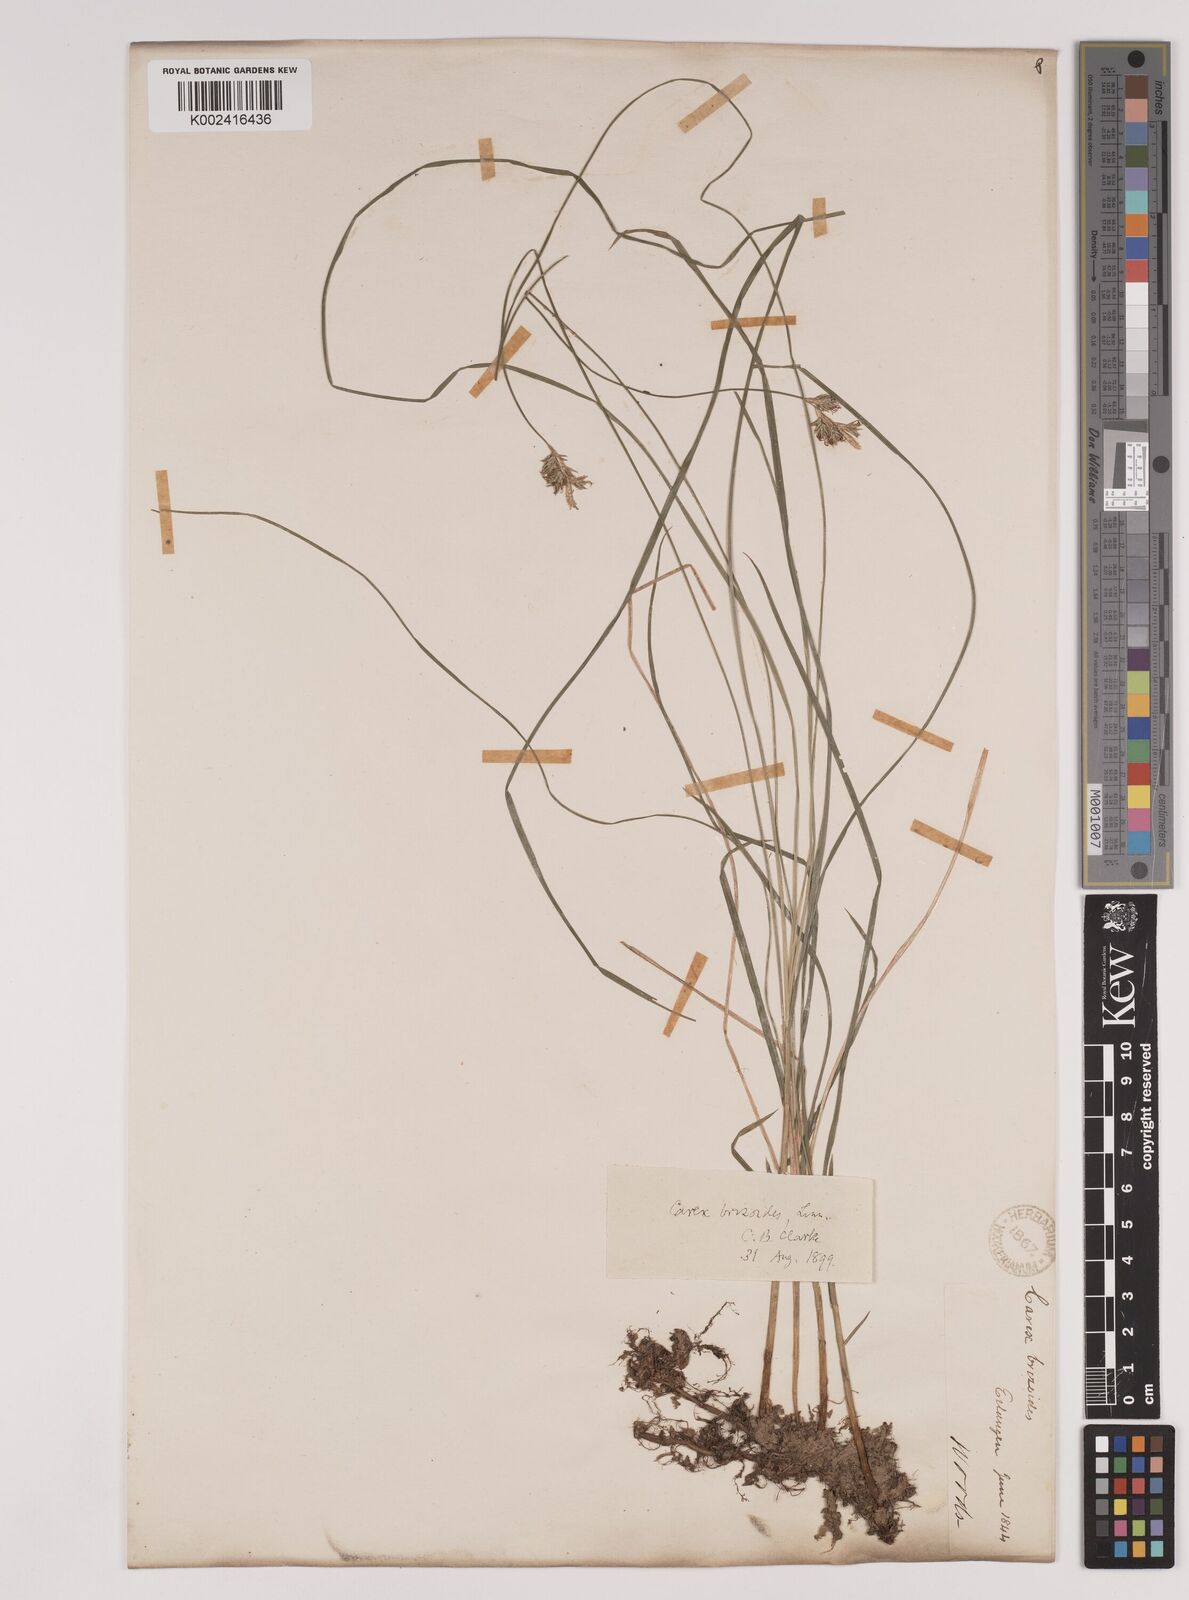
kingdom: Plantae
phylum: Tracheophyta
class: Liliopsida
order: Poales
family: Cyperaceae
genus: Carex
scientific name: Carex brizoides
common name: Quaking-grass sedge
